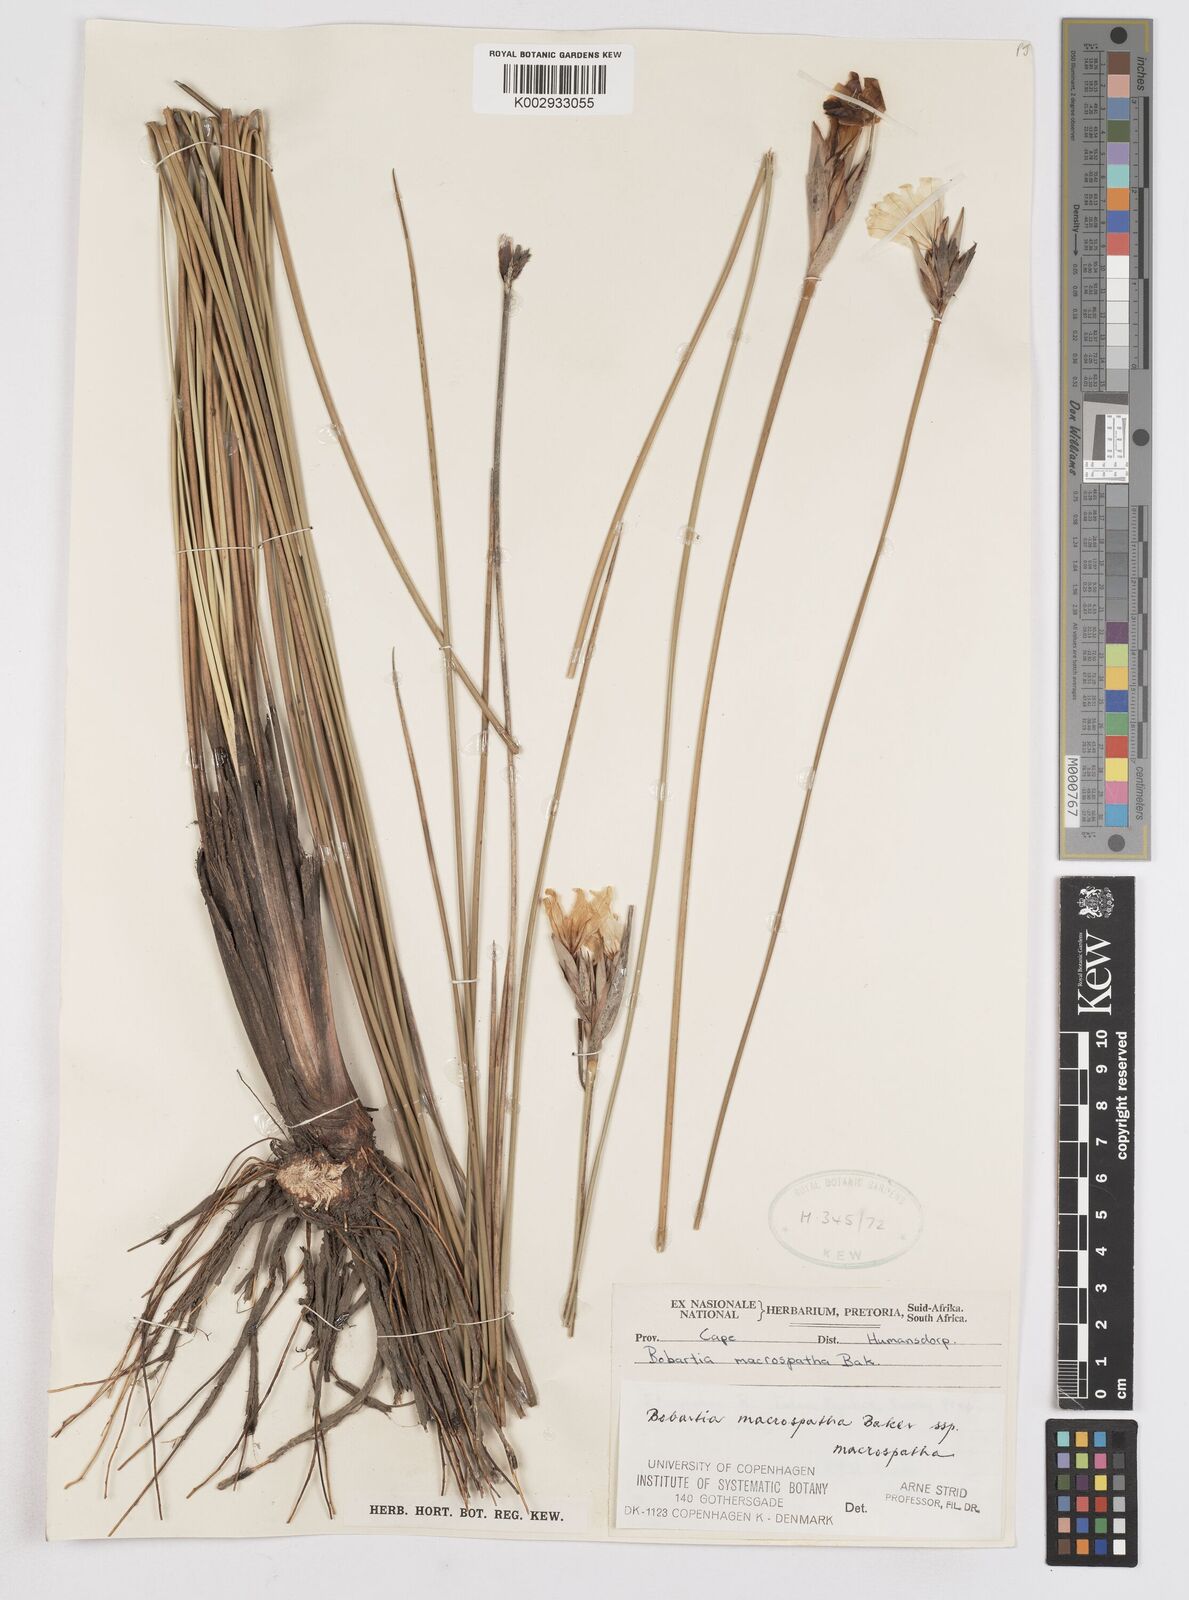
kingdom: Plantae
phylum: Tracheophyta
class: Liliopsida
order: Asparagales
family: Iridaceae
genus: Bobartia
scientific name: Bobartia macrospatha
